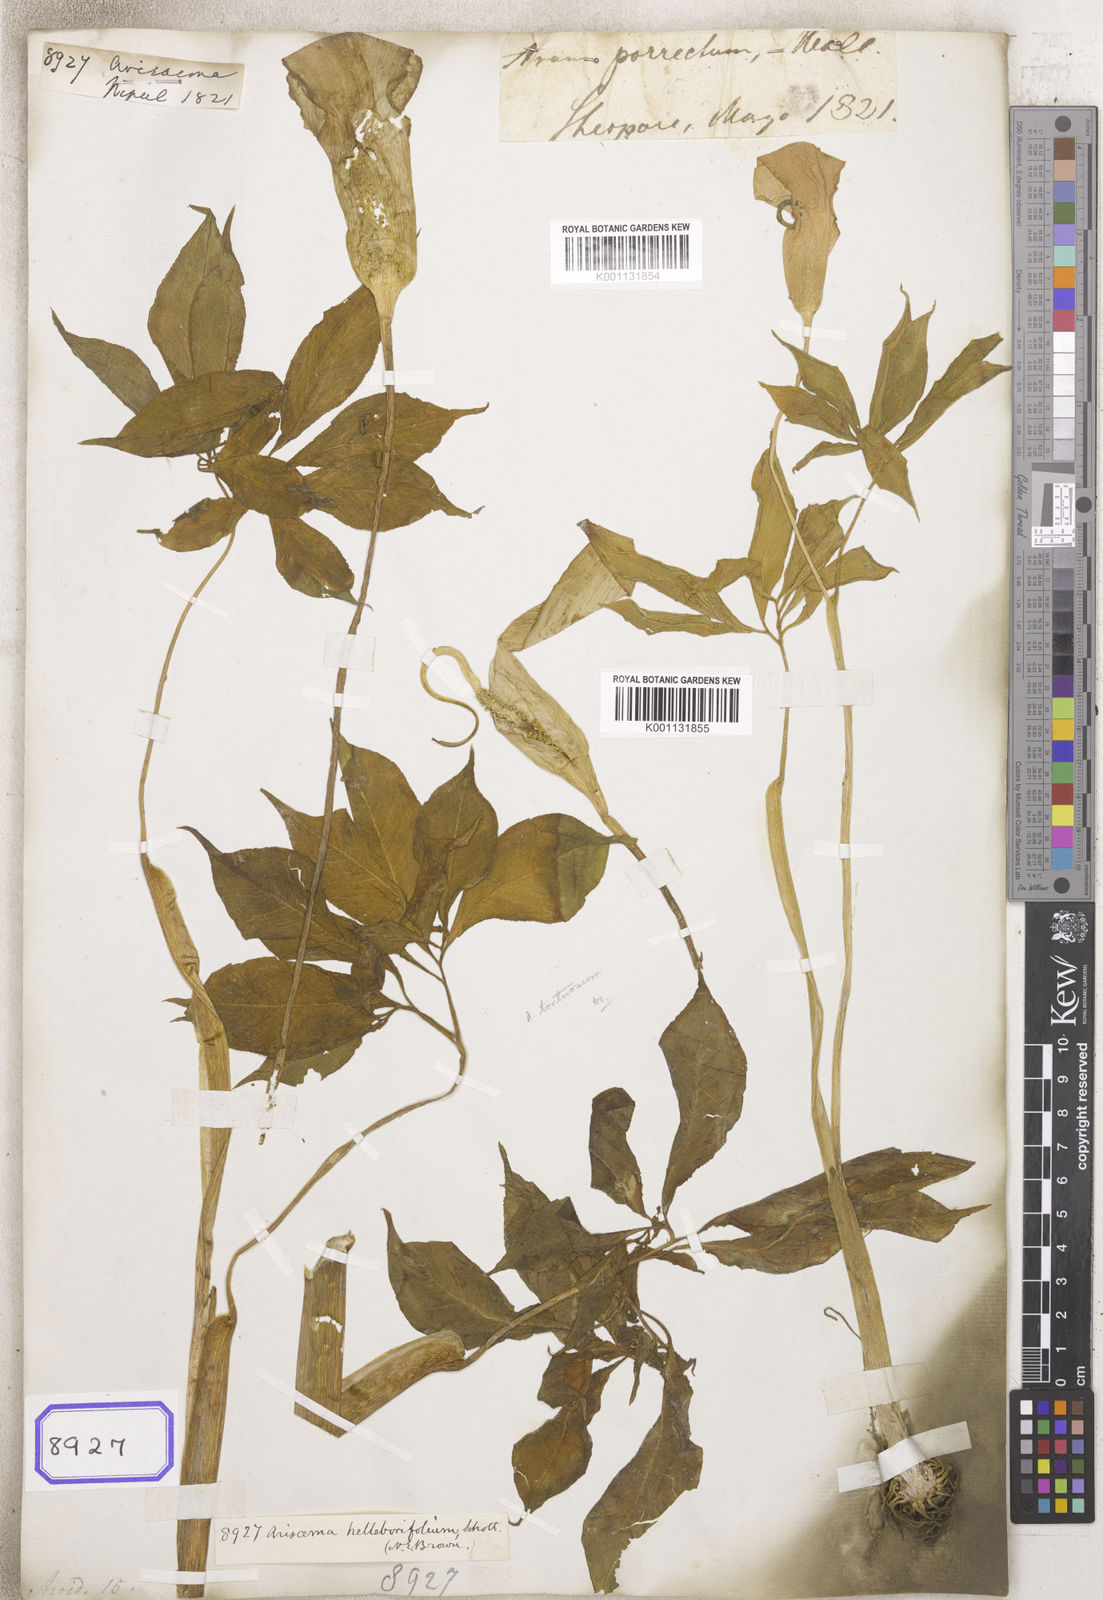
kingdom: Plantae
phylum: Tracheophyta
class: Liliopsida
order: Alismatales
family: Araceae
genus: Arisaema
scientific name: Arisaema
